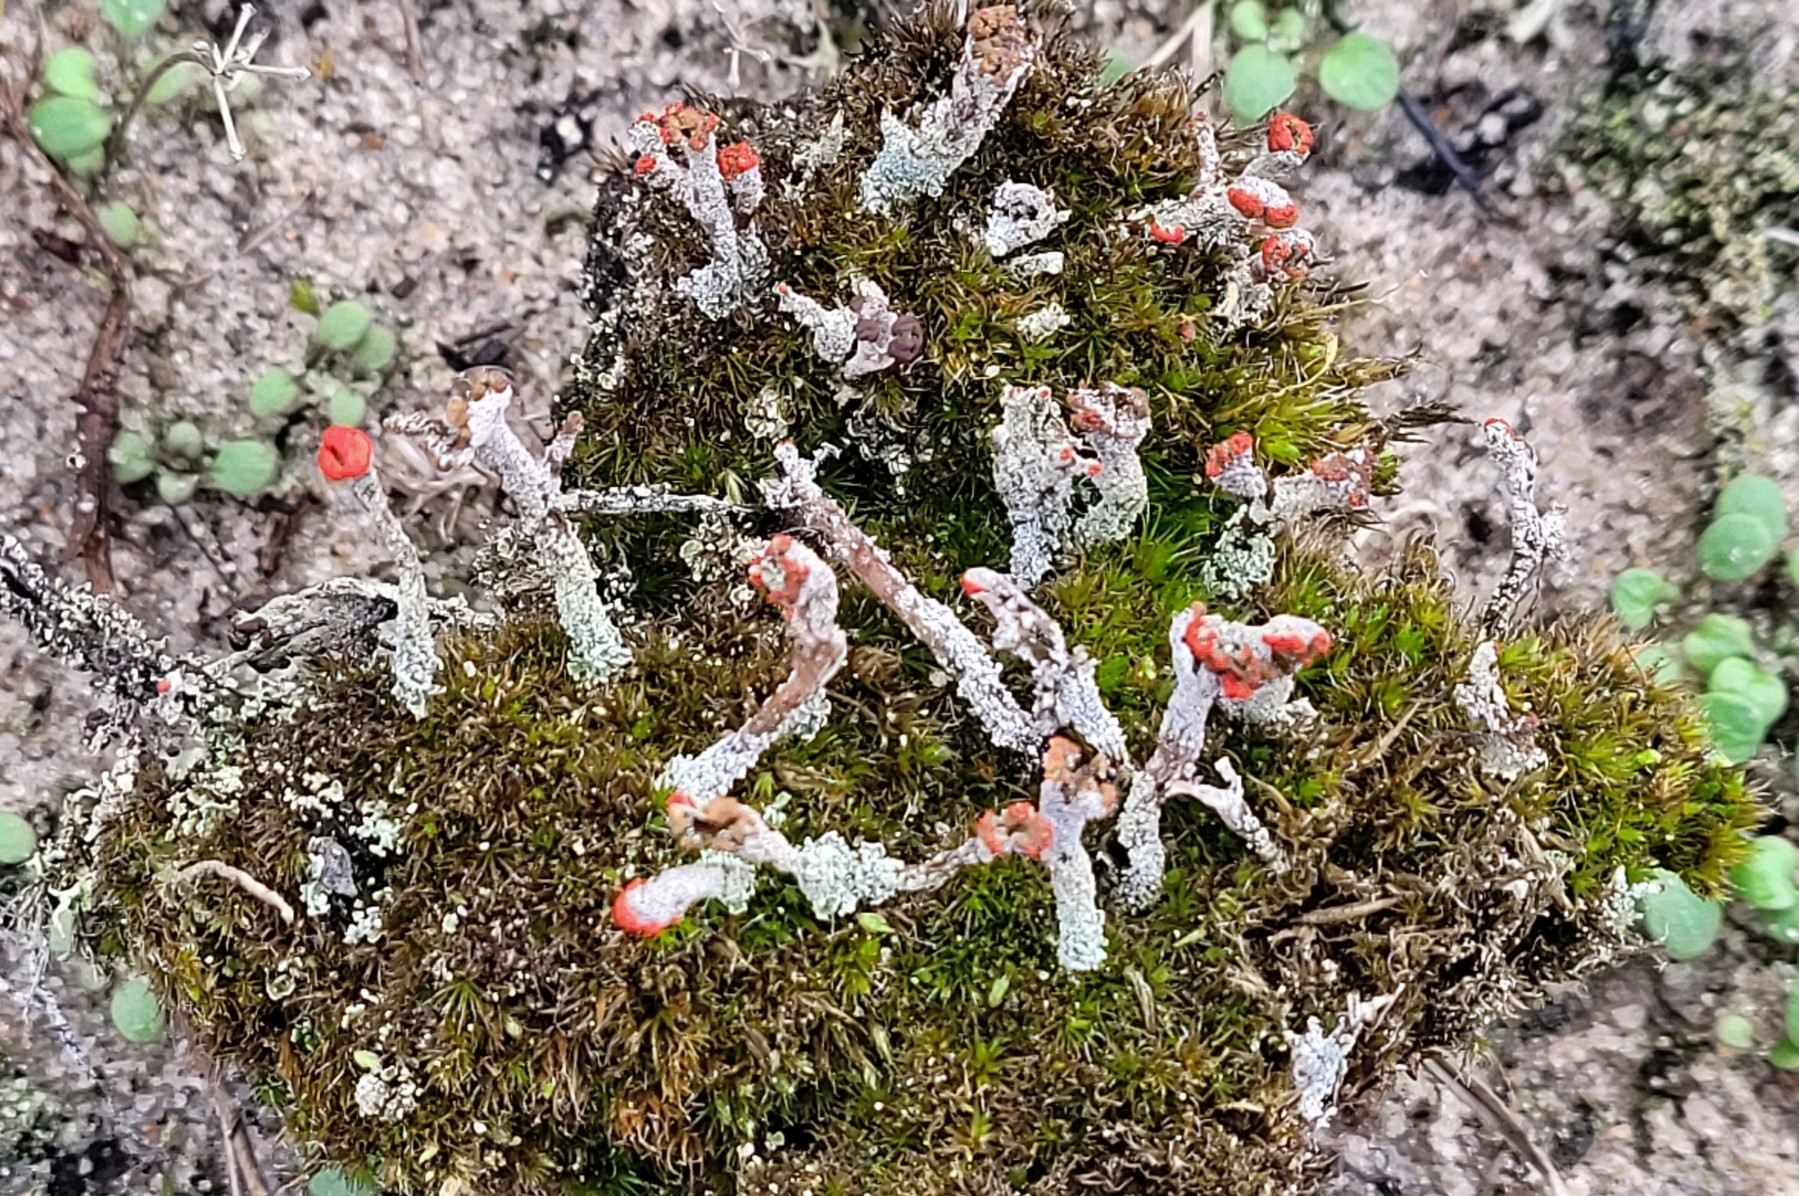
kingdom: Fungi
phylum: Ascomycota
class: Lecanoromycetes
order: Lecanorales
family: Cladoniaceae
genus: Cladonia
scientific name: Cladonia floerkeana
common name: lakrød bægerlav
